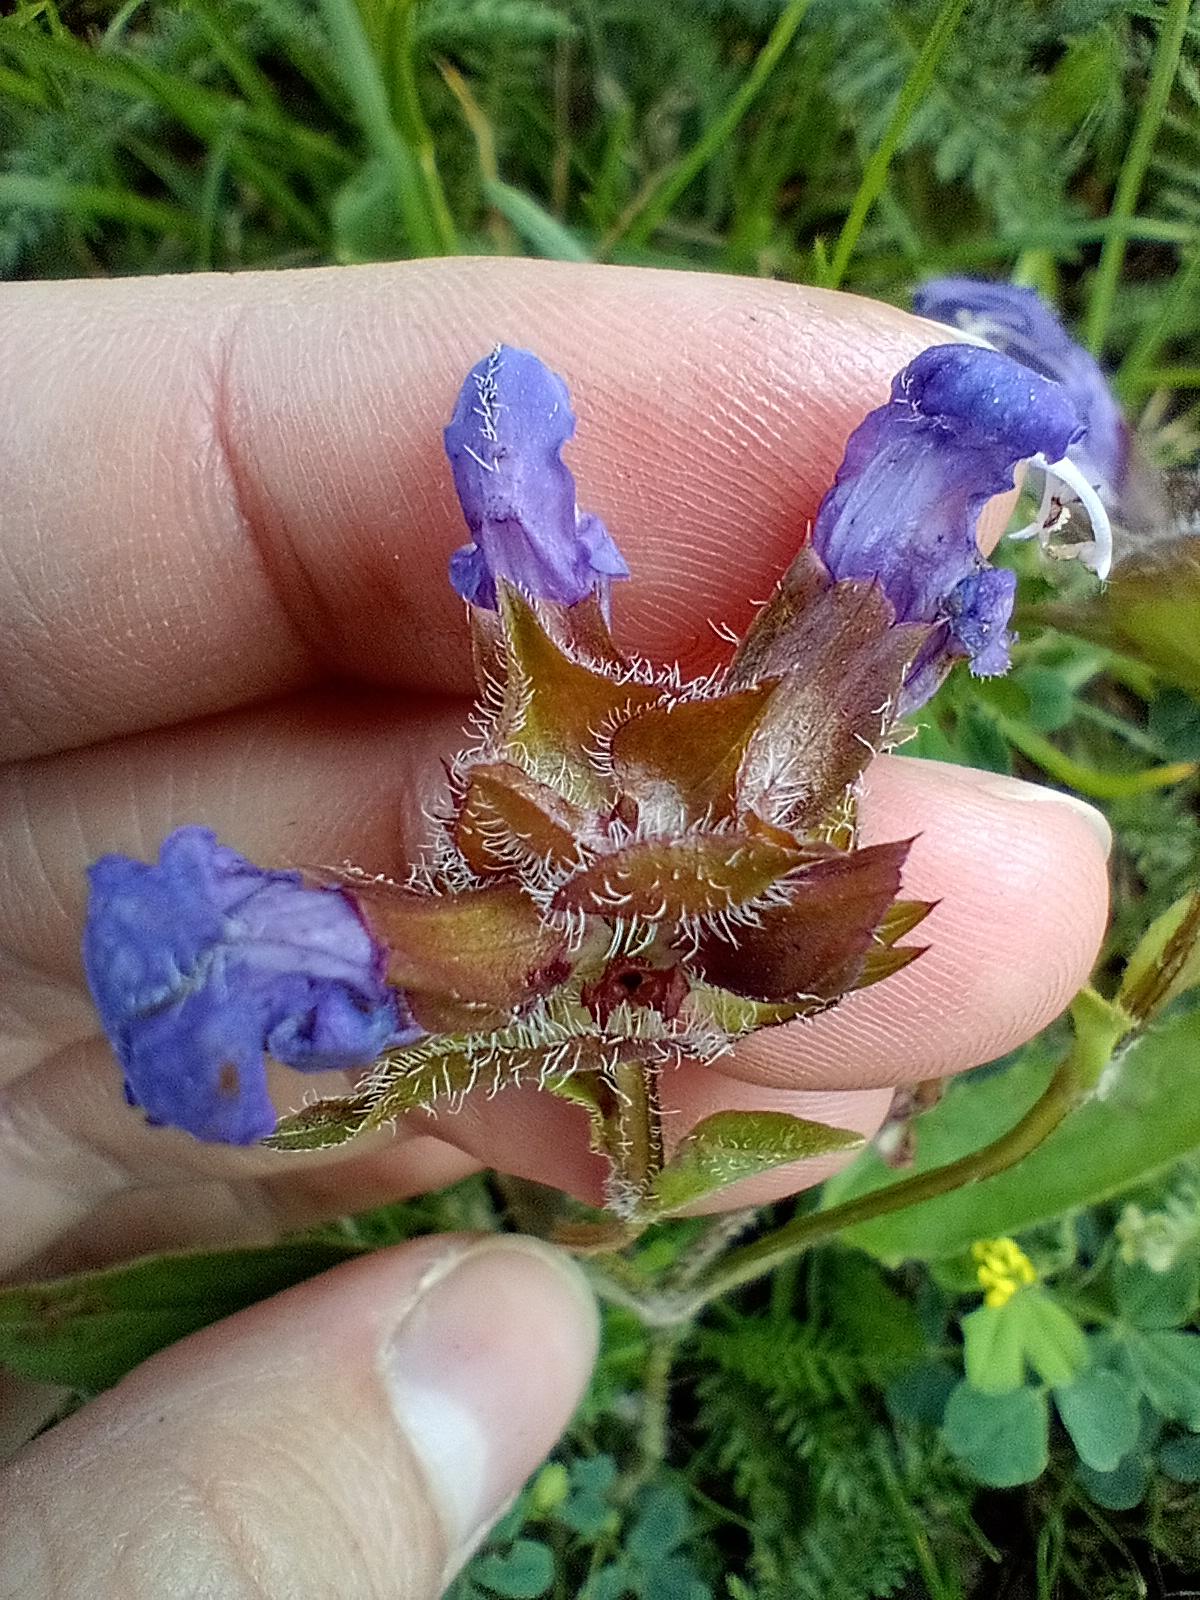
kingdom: Plantae
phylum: Tracheophyta
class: Magnoliopsida
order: Lamiales
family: Lamiaceae
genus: Prunella
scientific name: Prunella grandiflora
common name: Storblomstret brunelle
